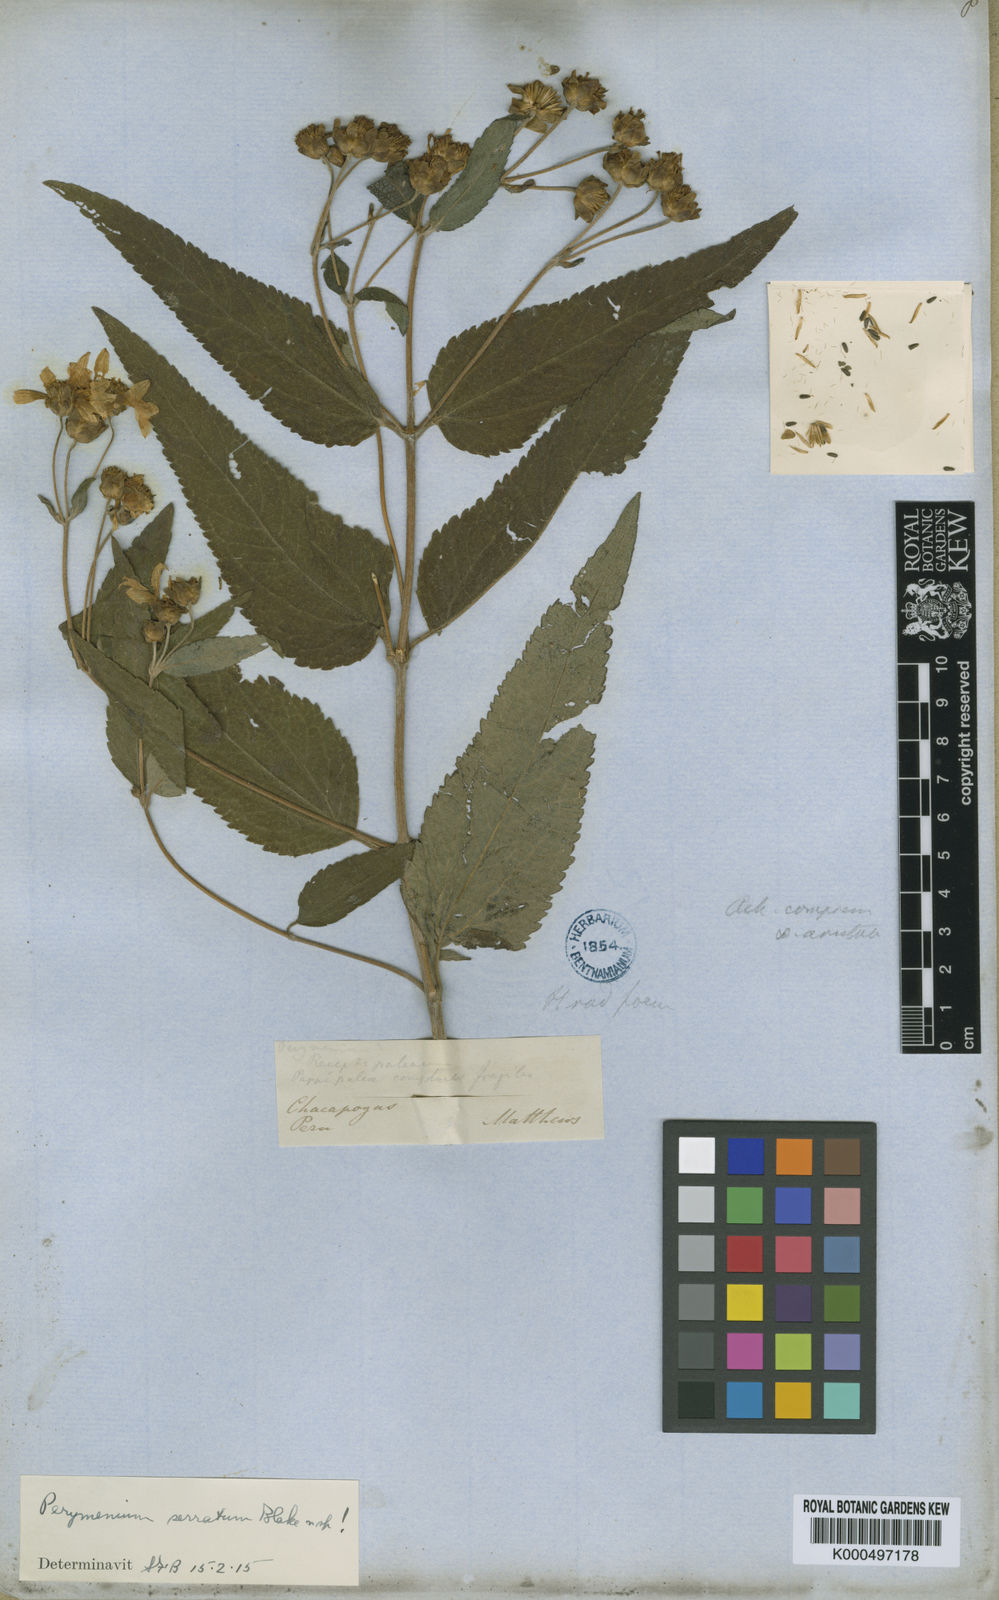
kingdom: Plantae
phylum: Tracheophyta
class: Magnoliopsida
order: Asterales
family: Asteraceae
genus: Perymenium
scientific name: Perymenium jelskii
